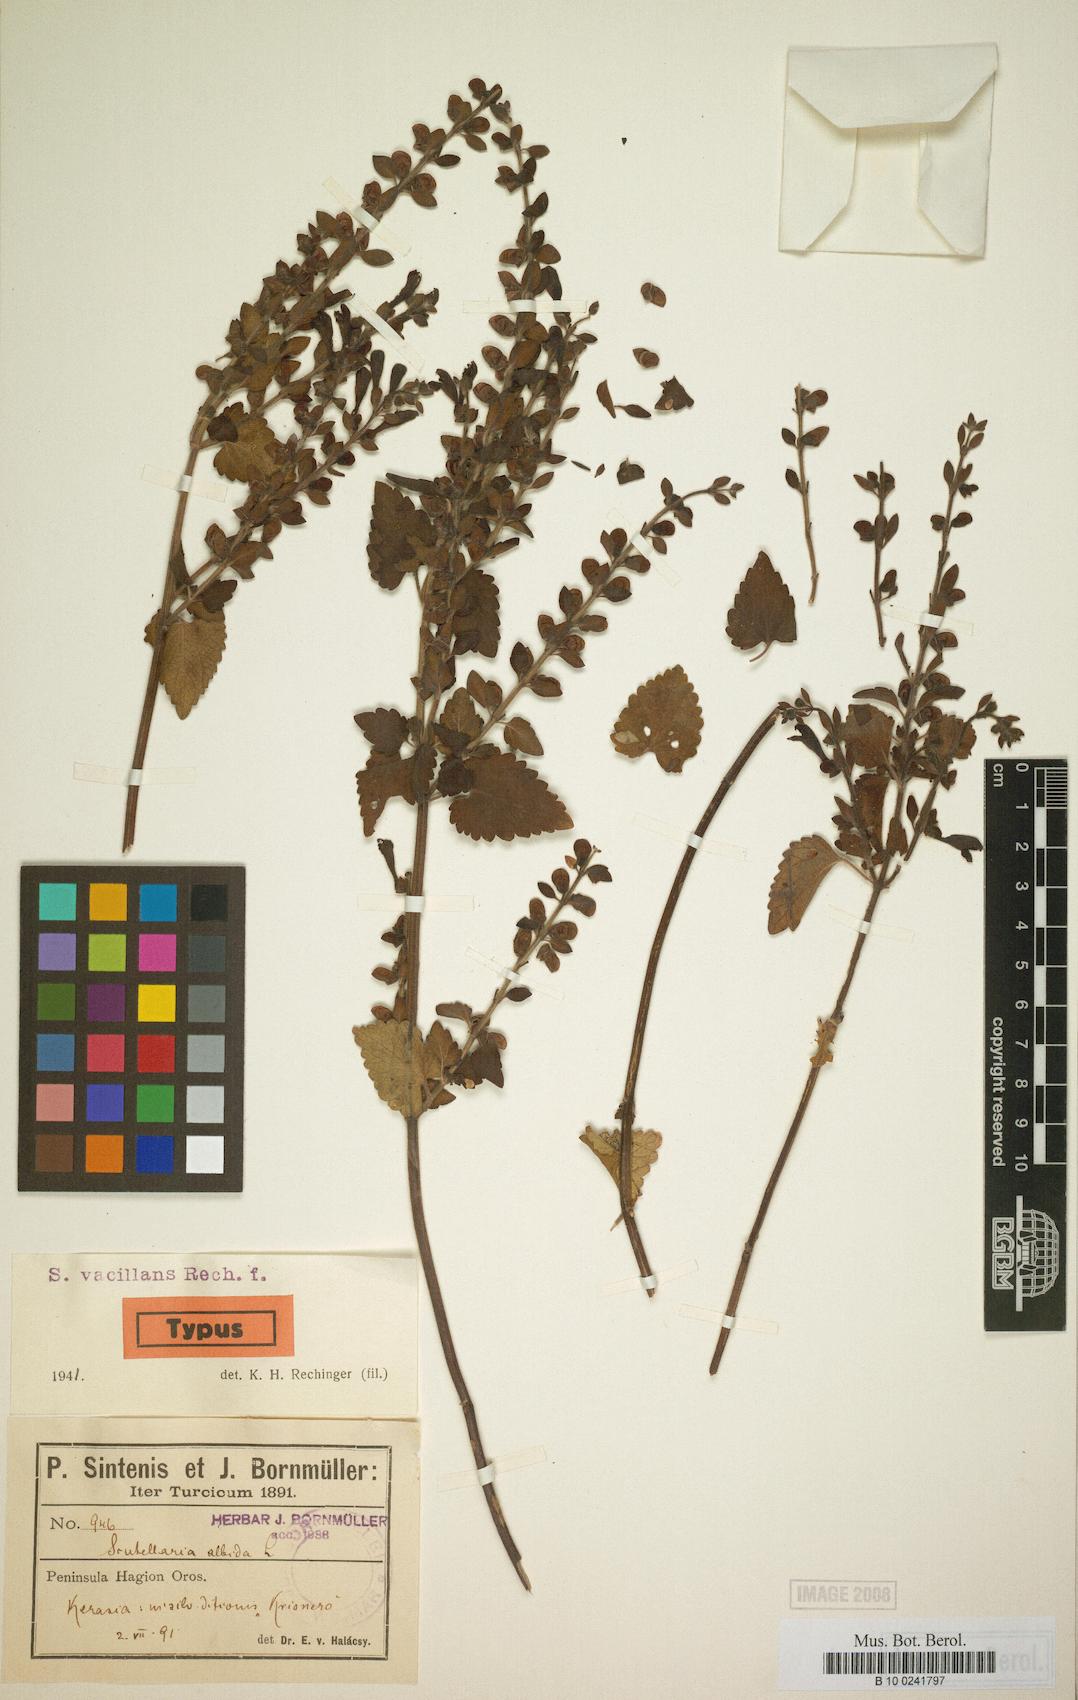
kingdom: Plantae
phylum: Tracheophyta
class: Magnoliopsida
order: Lamiales
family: Lamiaceae
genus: Scutellaria
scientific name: Scutellaria albida
